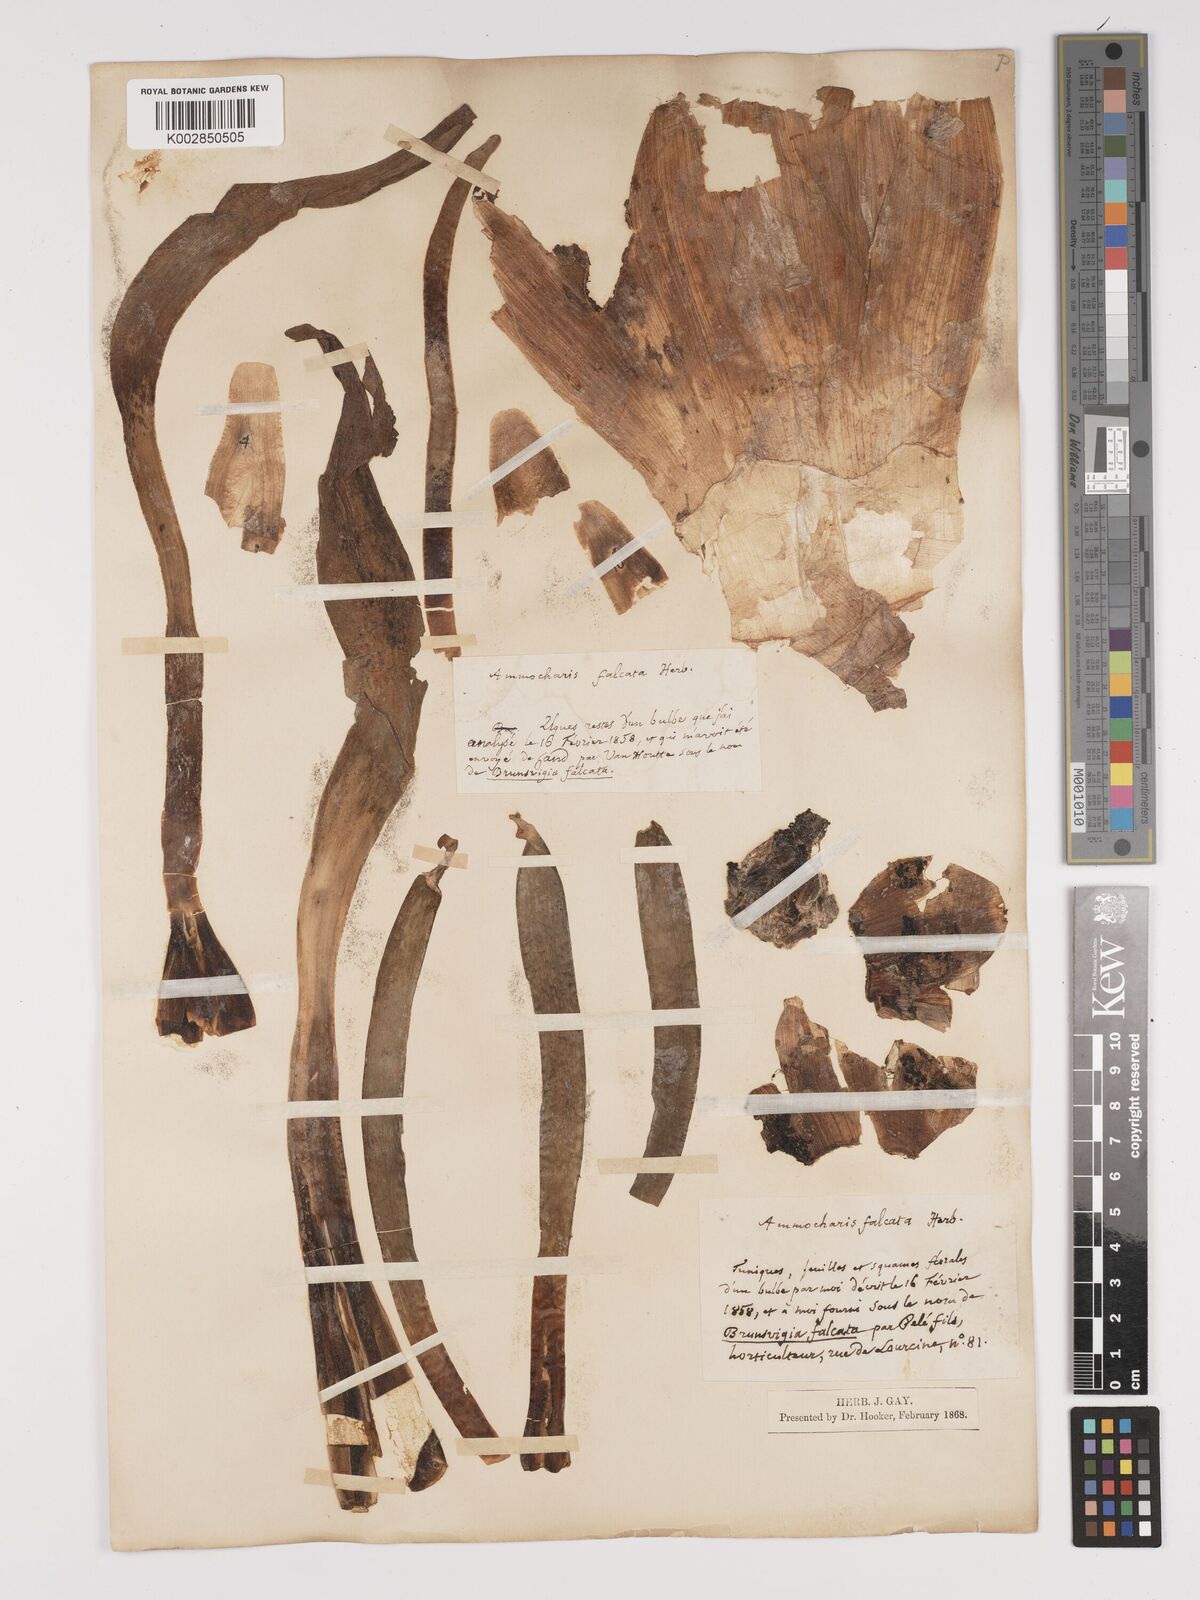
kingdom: Plantae
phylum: Tracheophyta
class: Liliopsida
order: Asparagales
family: Amaryllidaceae
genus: Ammocharis
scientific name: Ammocharis coranica
